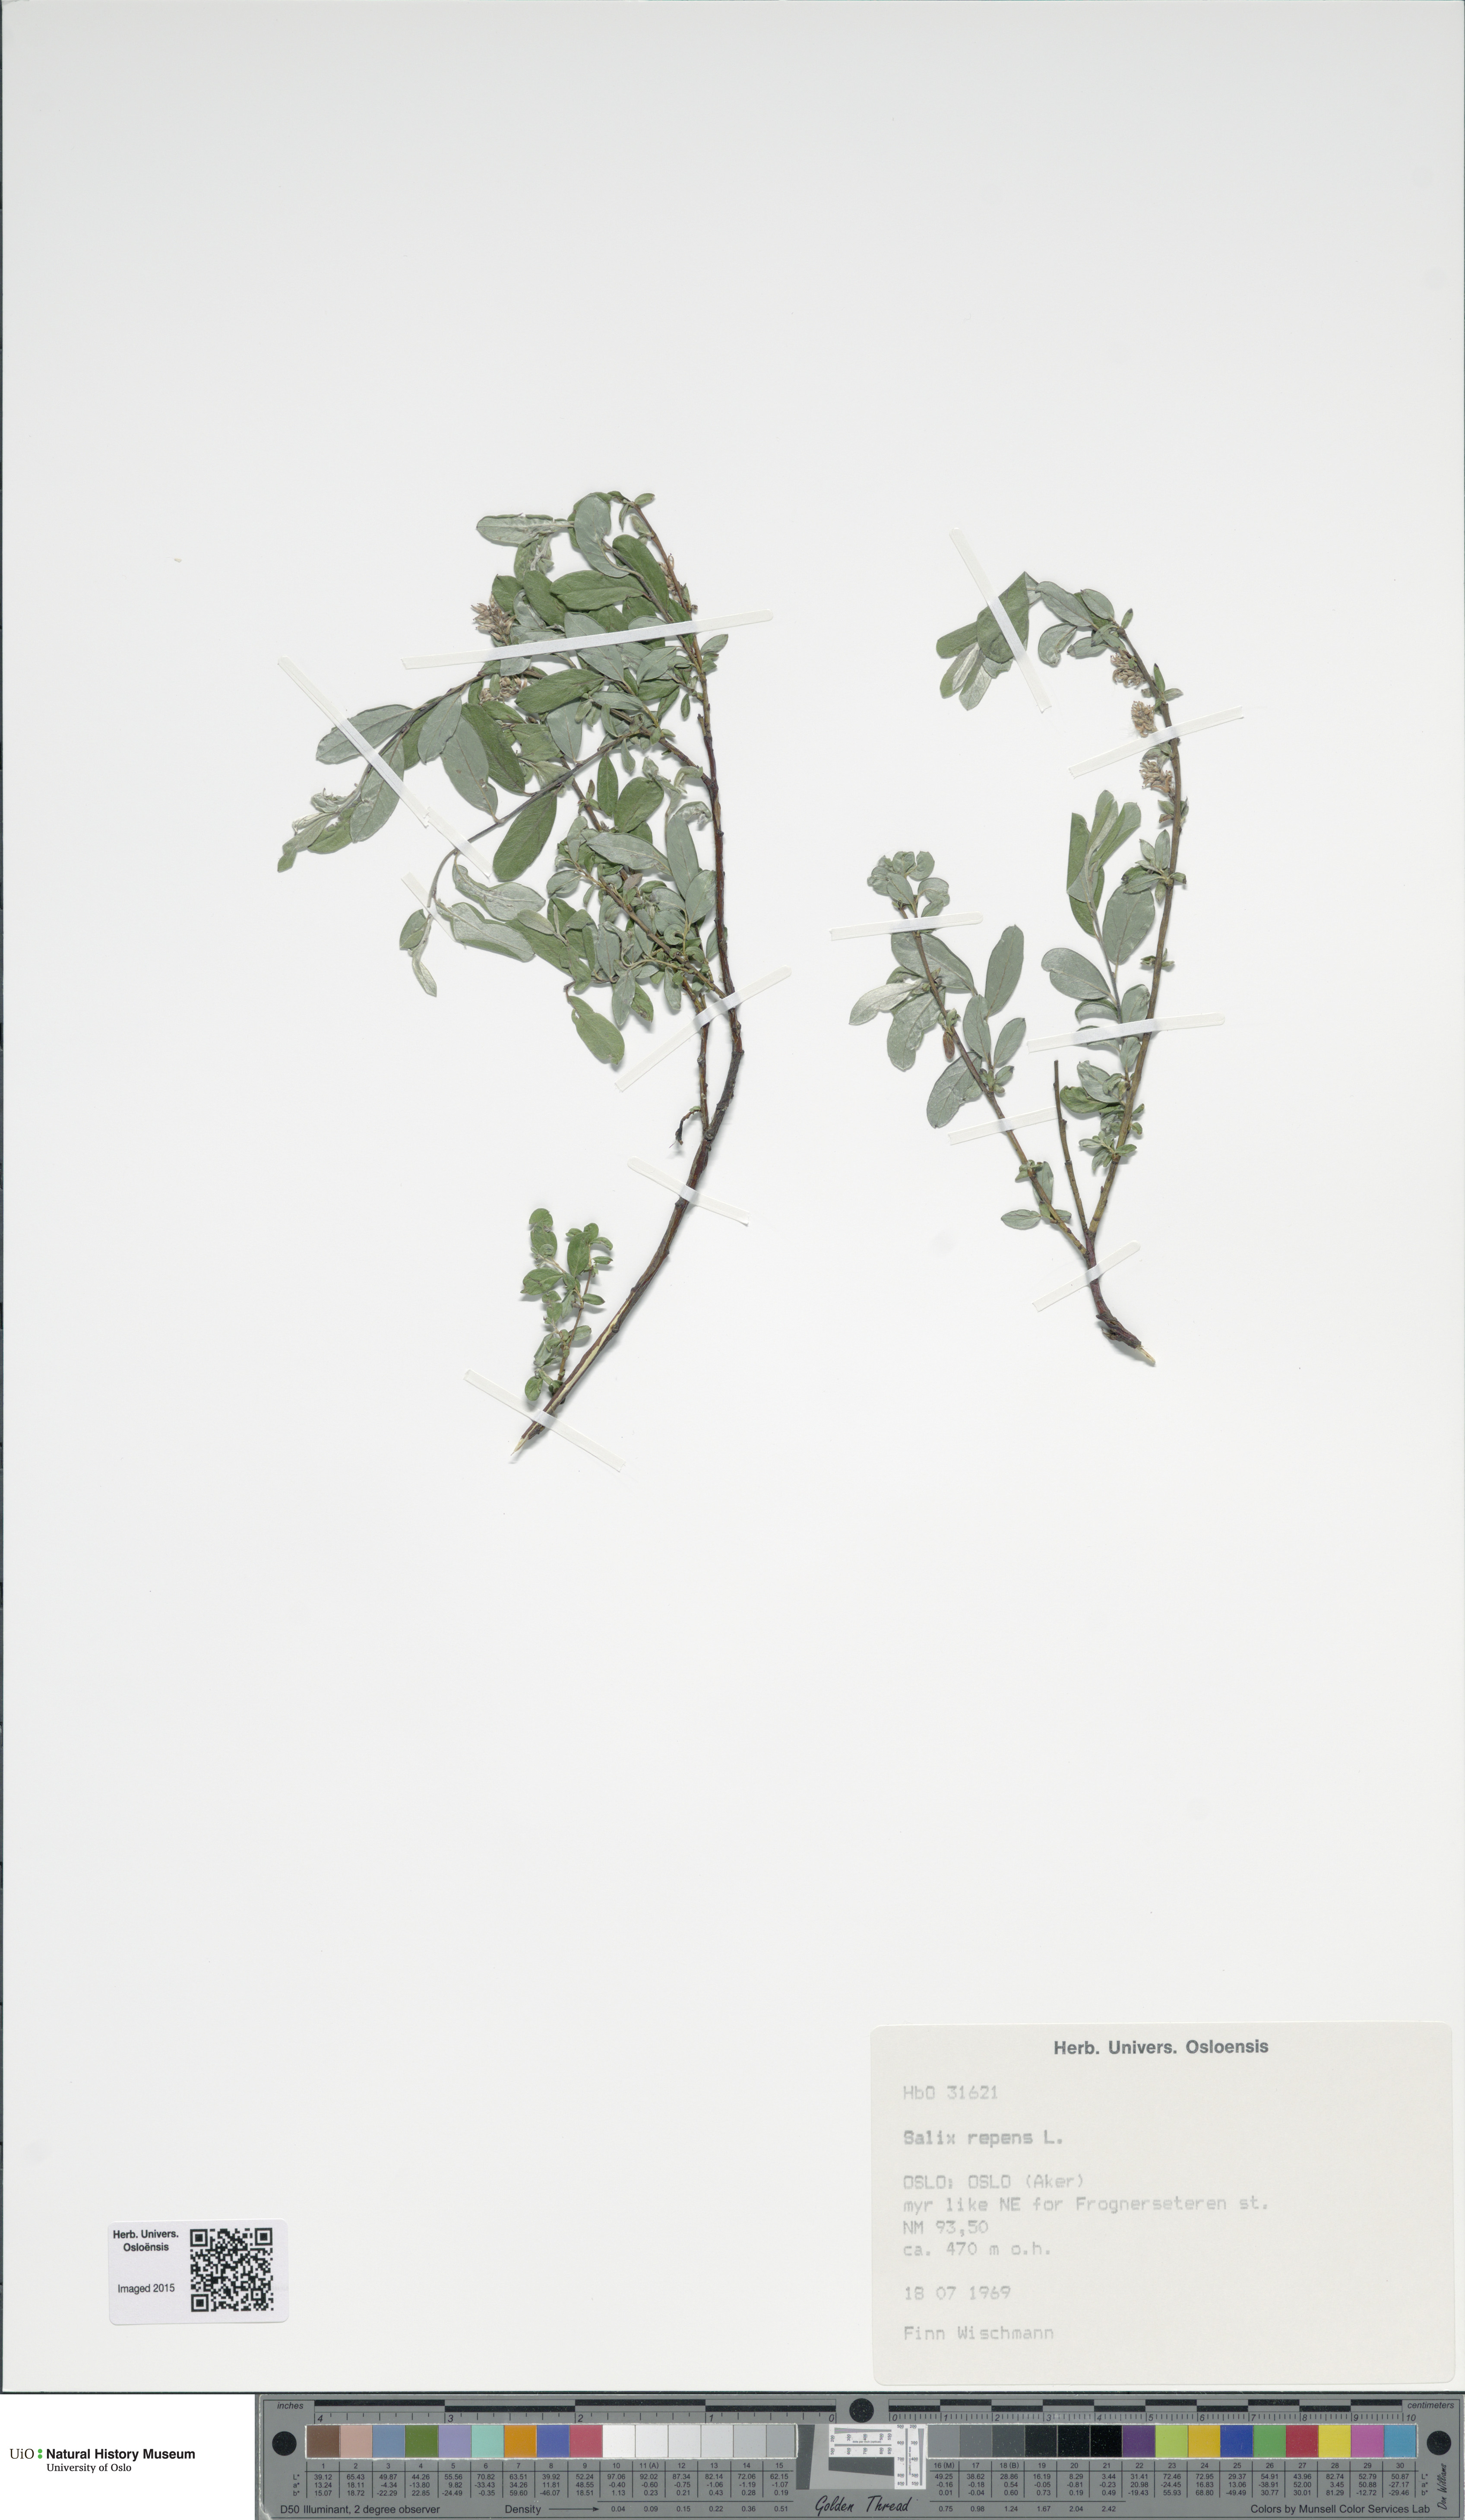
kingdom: Plantae
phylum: Tracheophyta
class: Magnoliopsida
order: Malpighiales
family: Salicaceae
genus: Salix
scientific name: Salix repens
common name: Creeping willow
